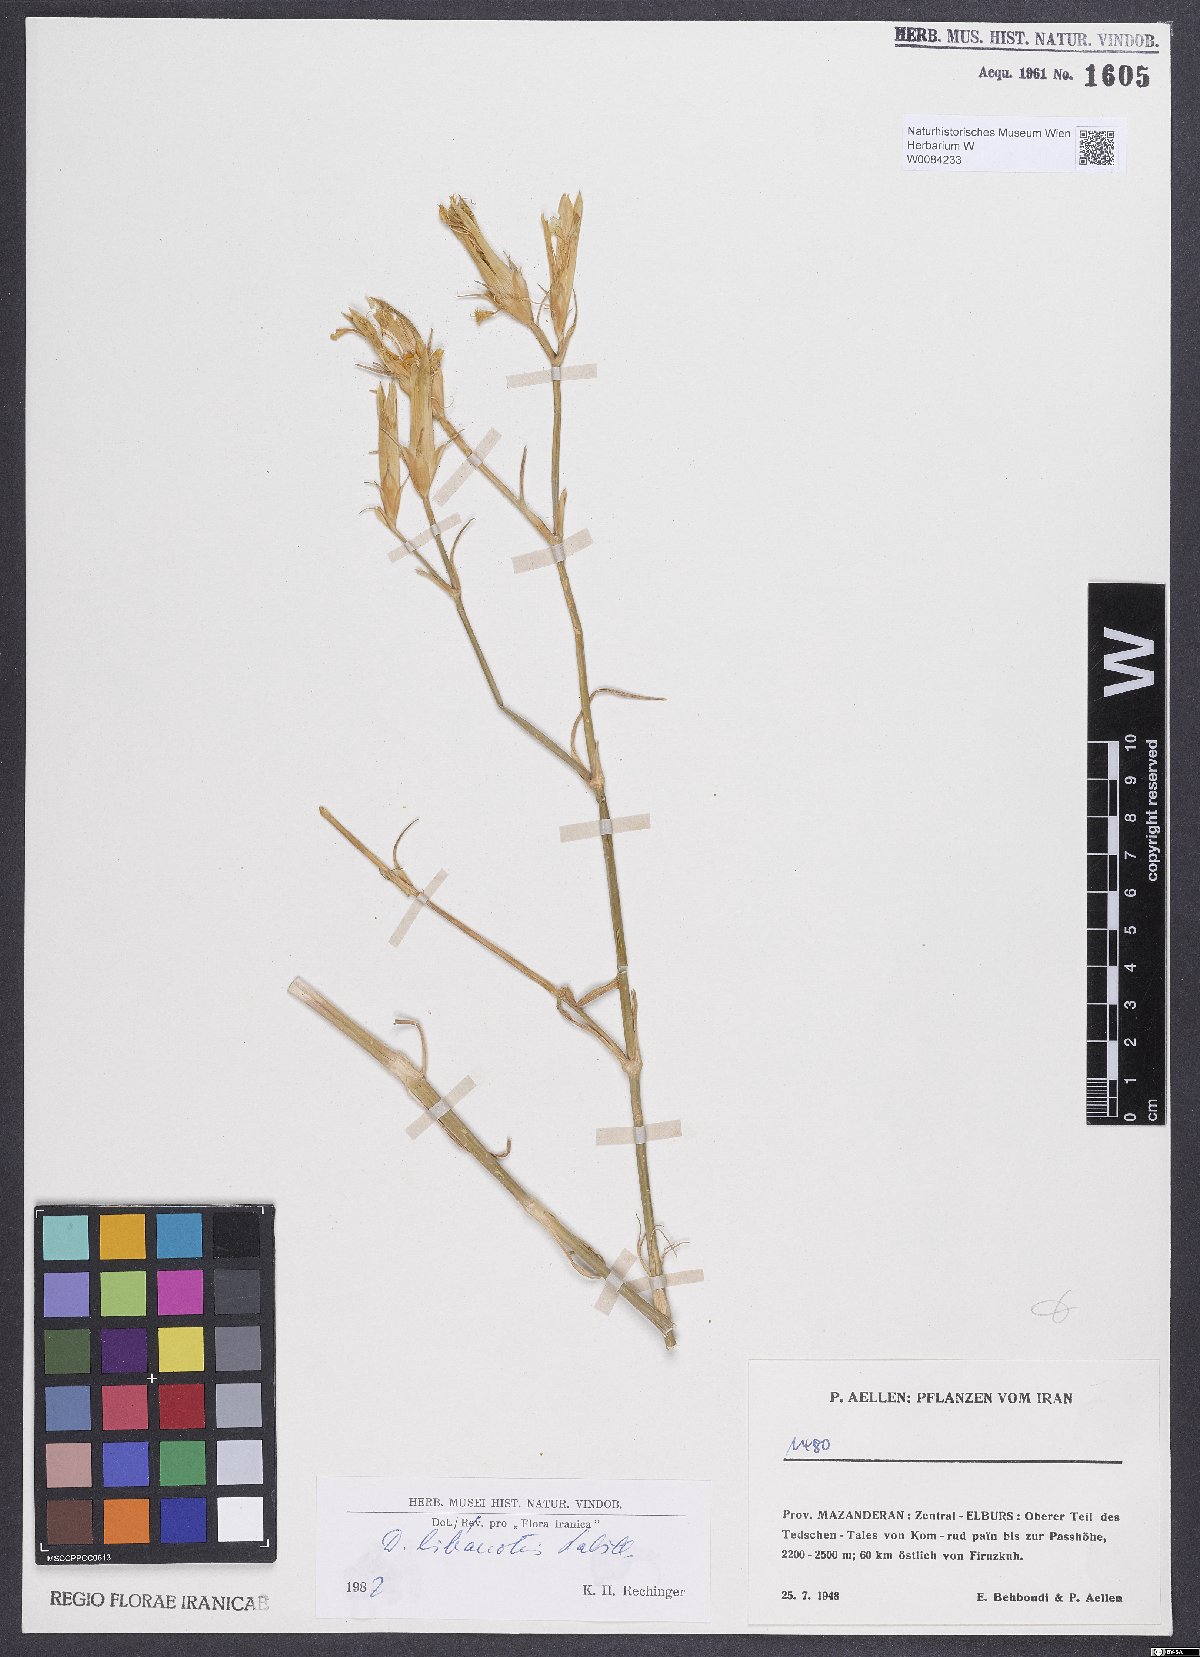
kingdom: Plantae
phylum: Tracheophyta
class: Magnoliopsida
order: Caryophyllales
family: Caryophyllaceae
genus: Dianthus
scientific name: Dianthus libanotis
